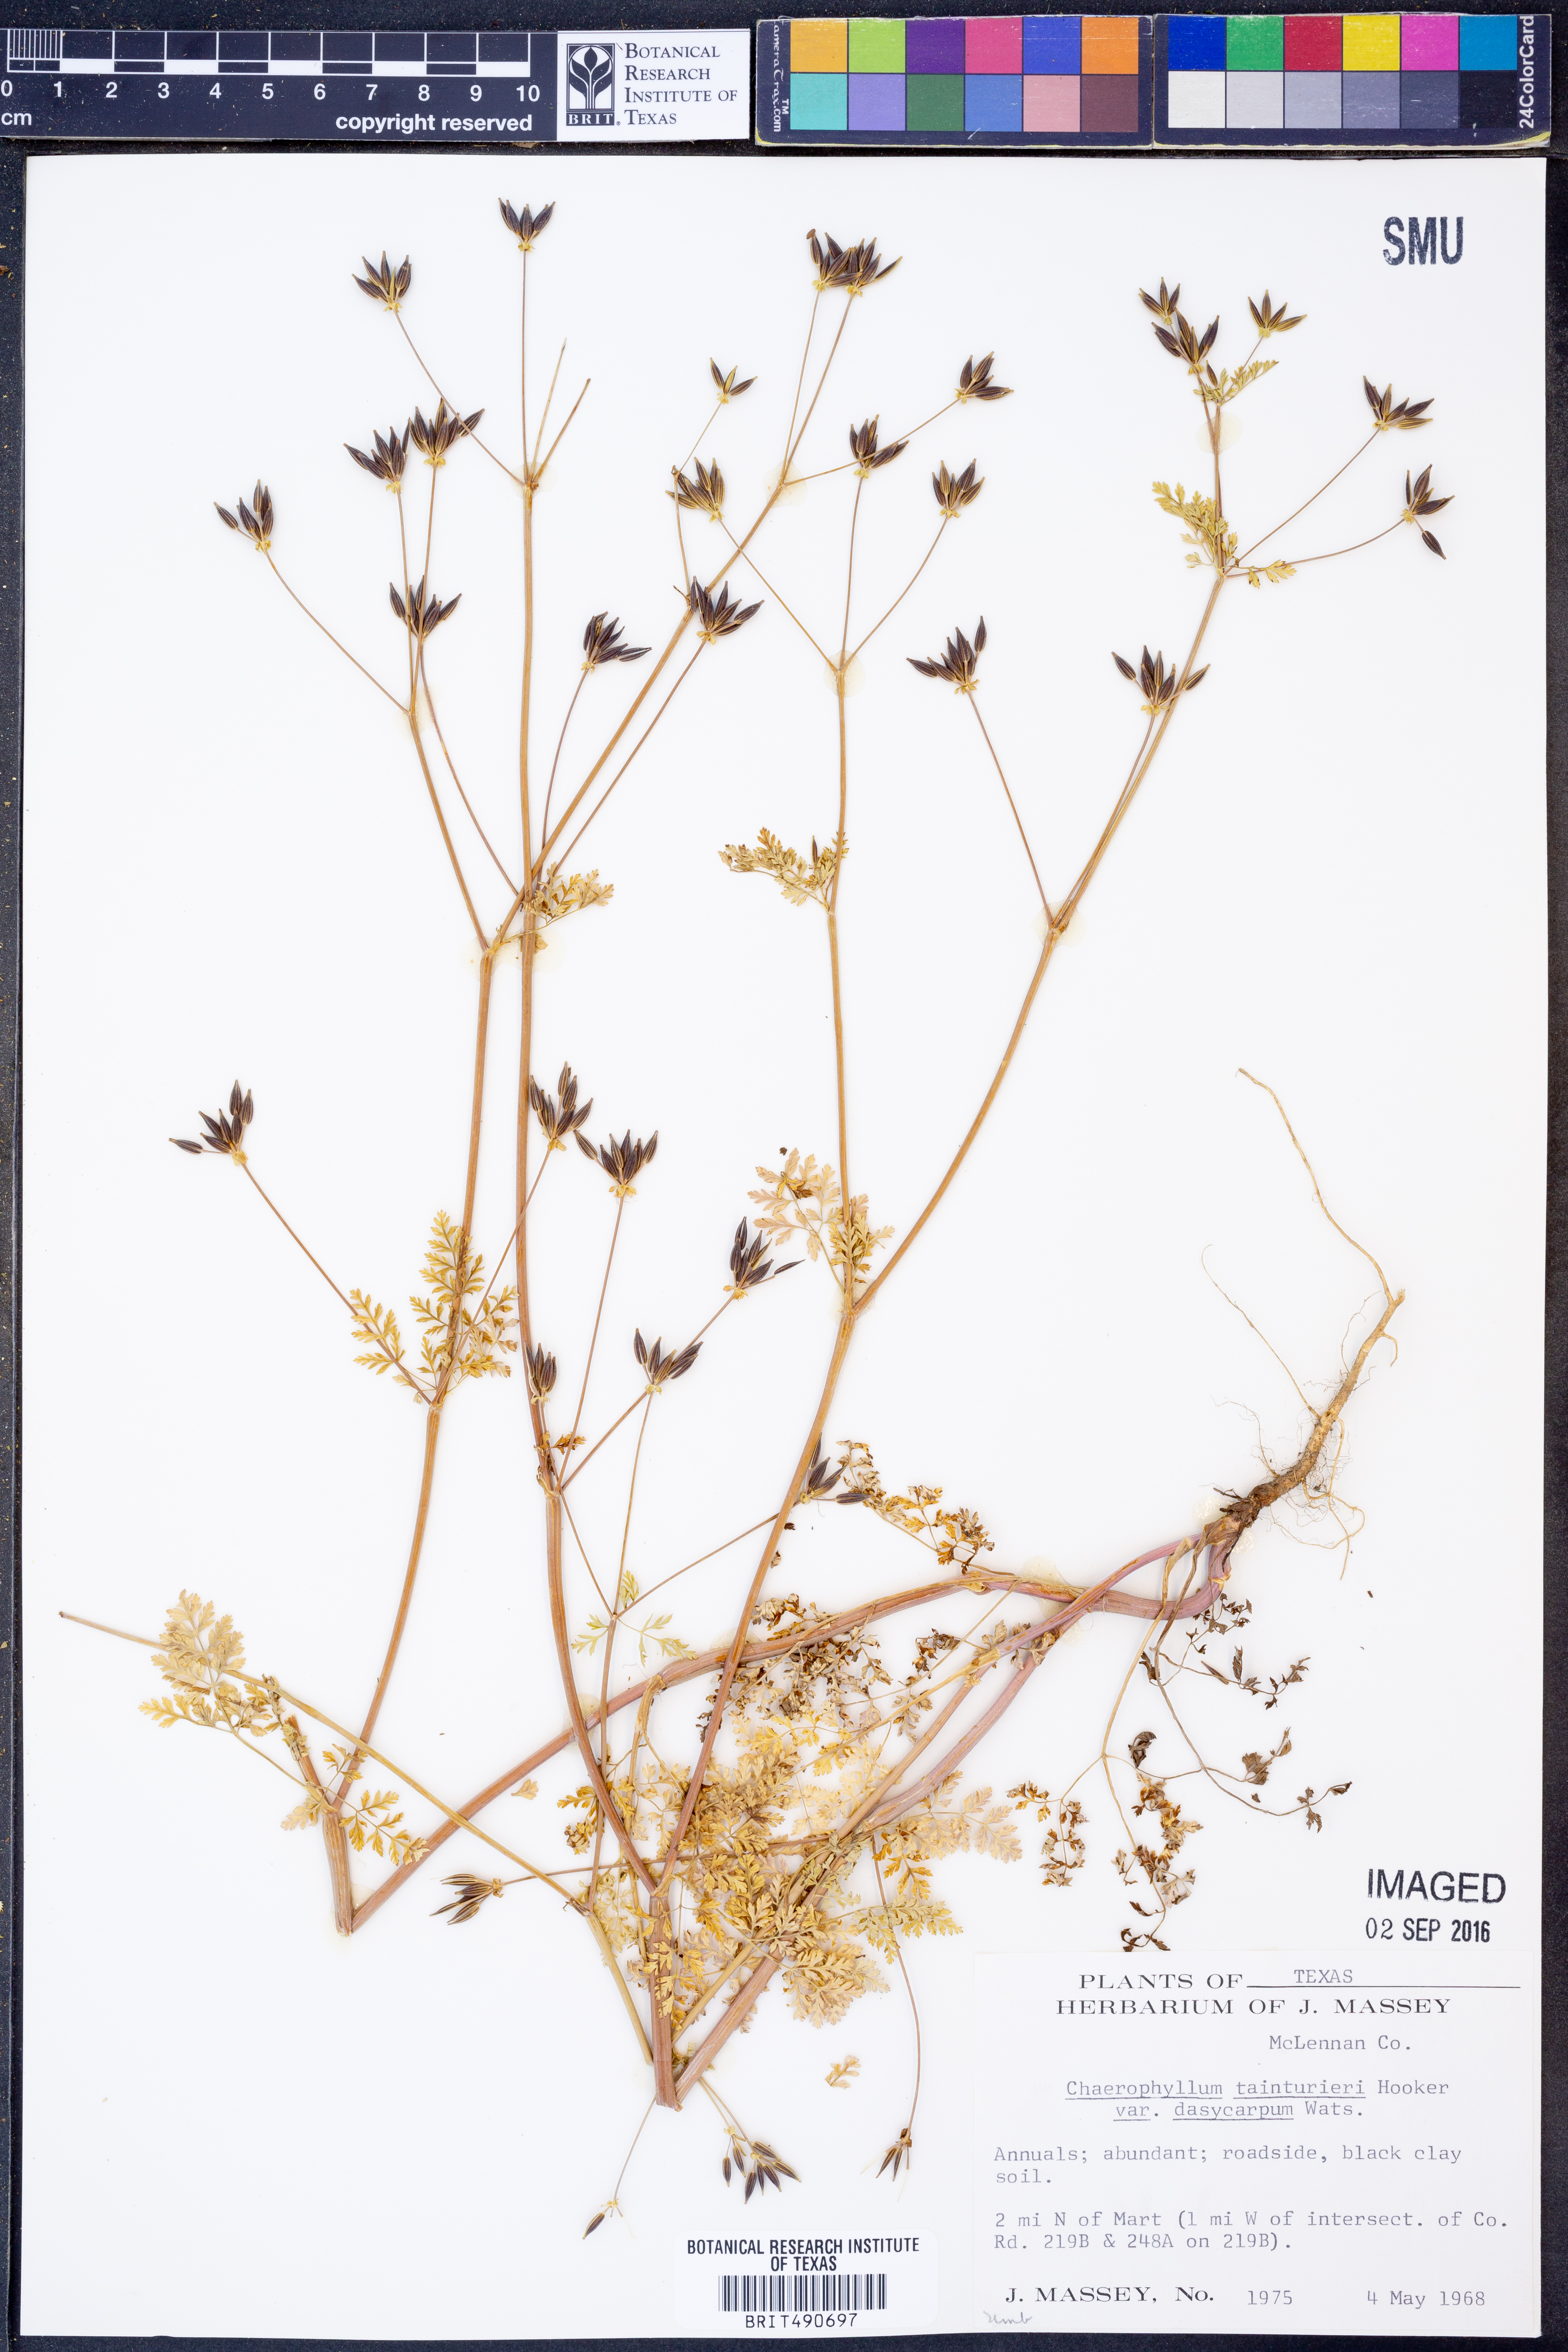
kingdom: Plantae
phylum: Tracheophyta
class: Magnoliopsida
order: Apiales
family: Apiaceae
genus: Chaerophyllum
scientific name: Chaerophyllum dasycarpum
